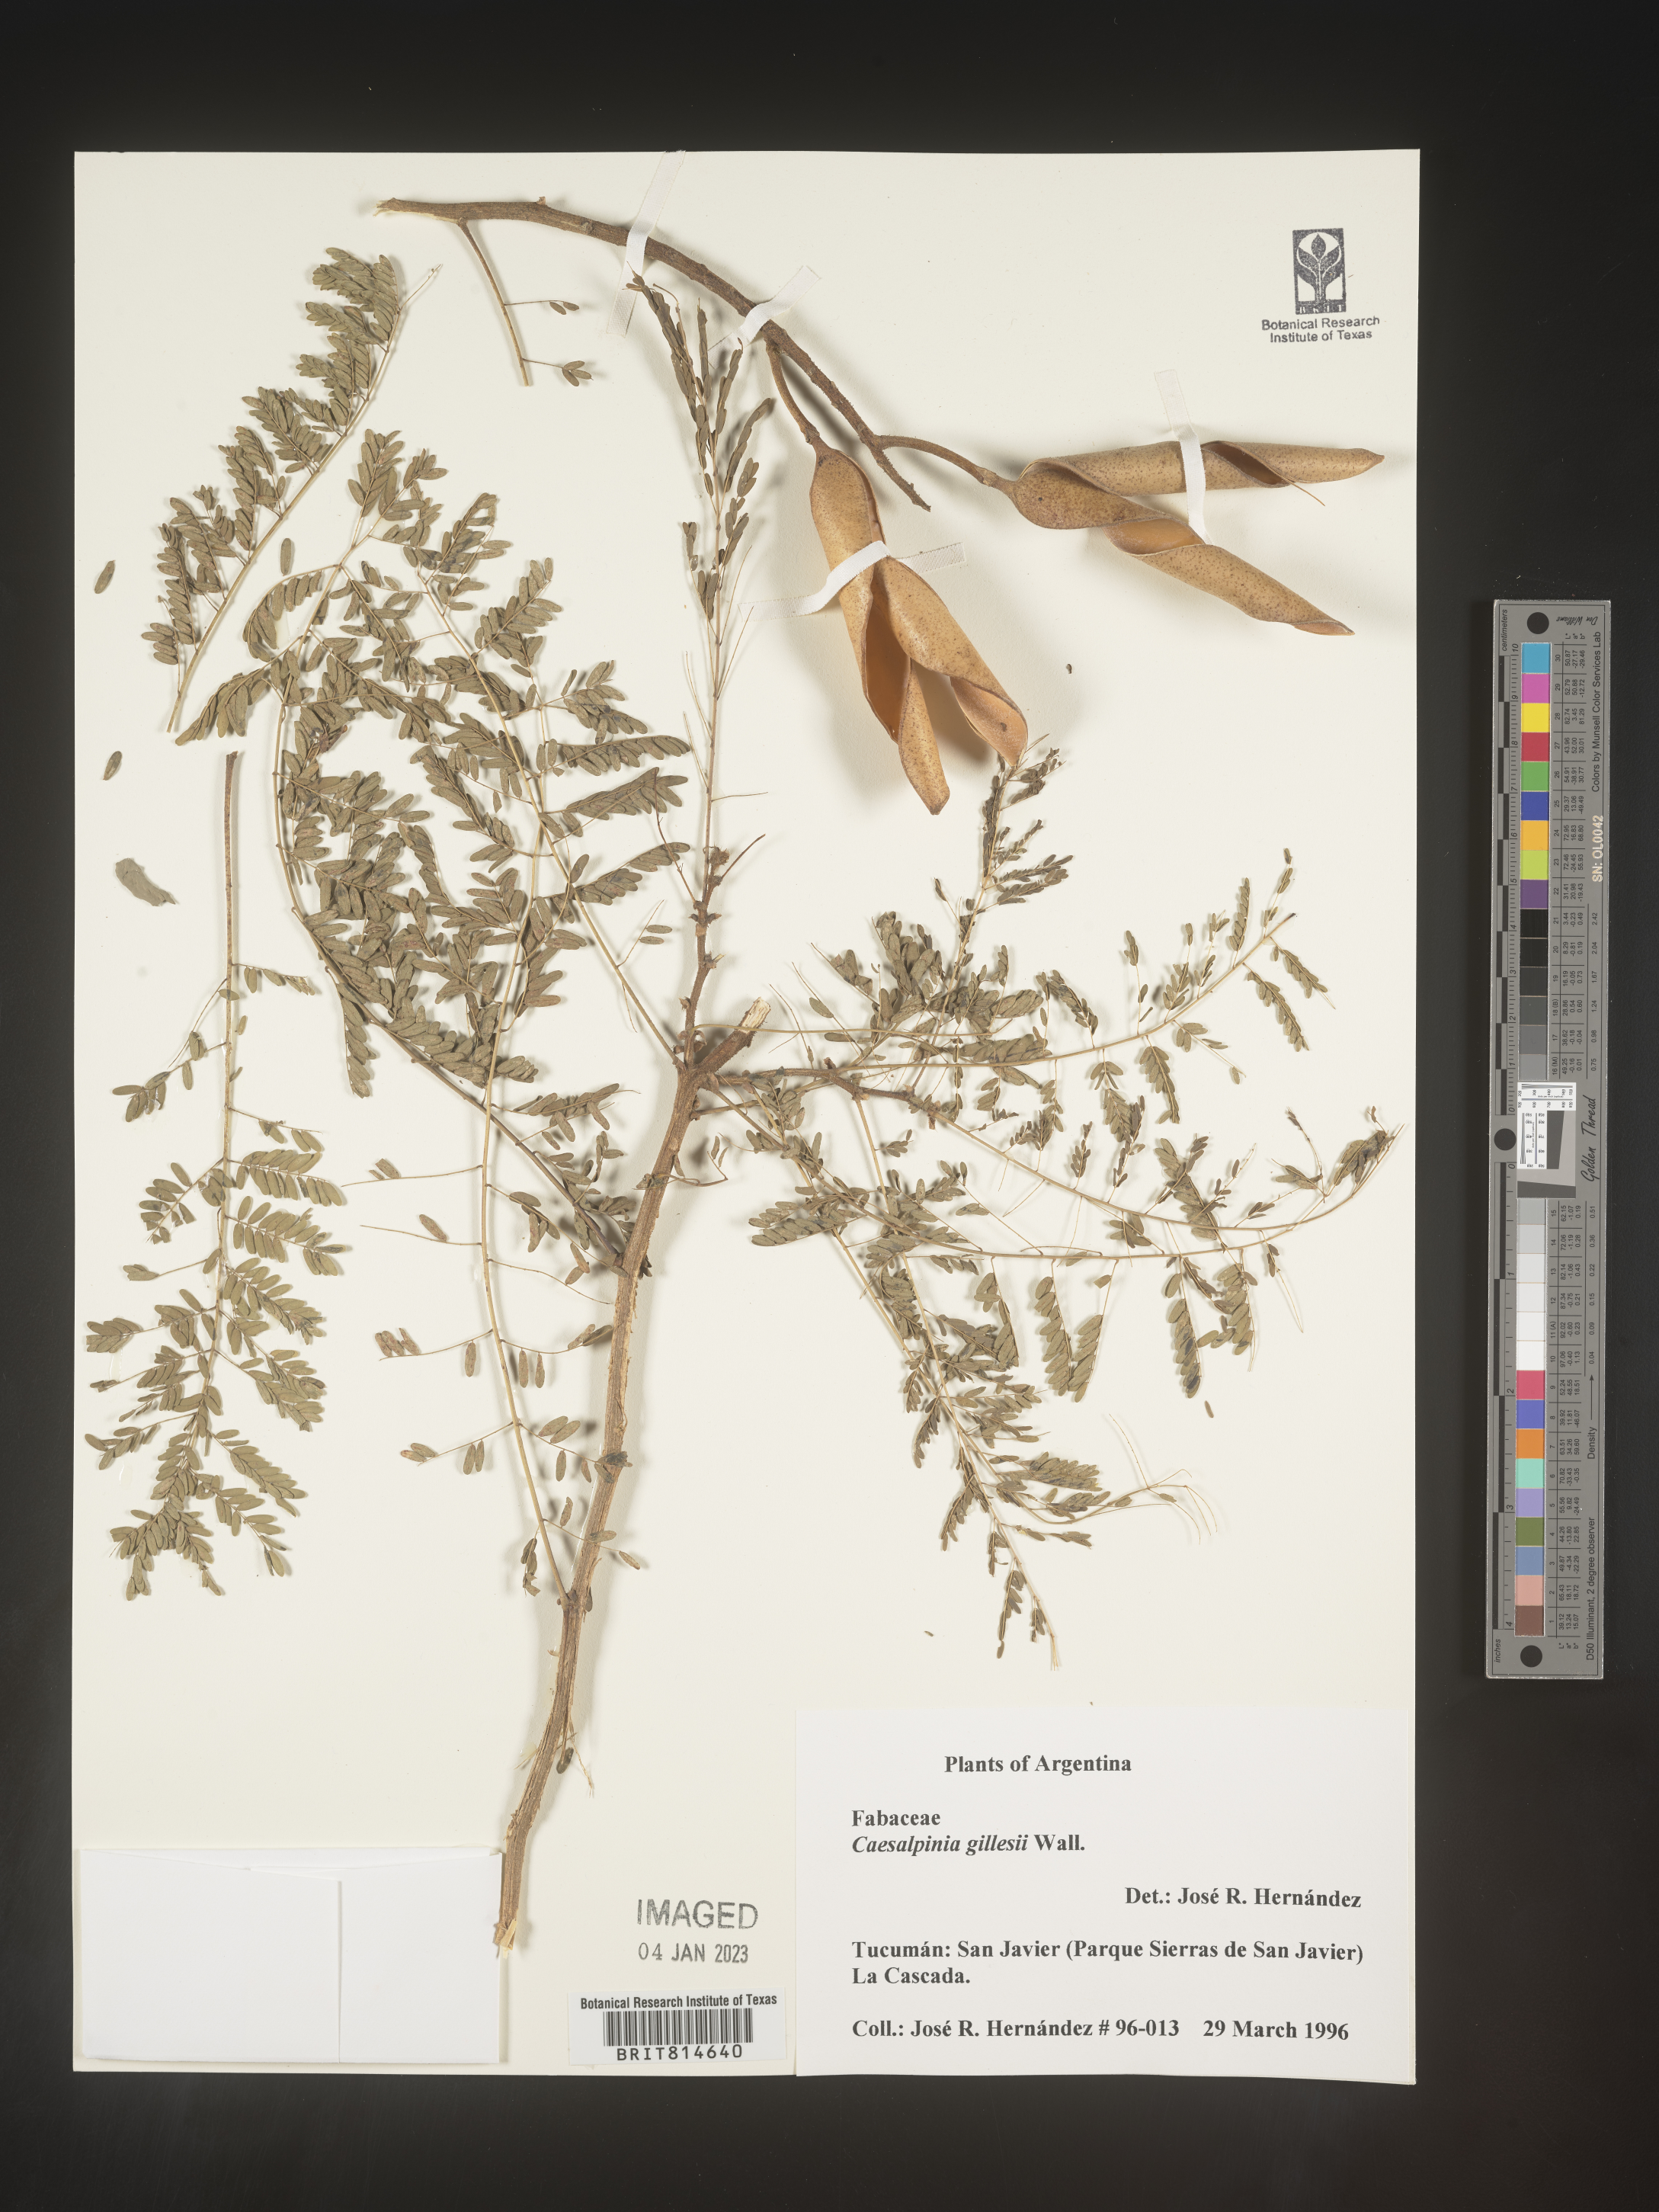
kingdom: Plantae
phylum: Tracheophyta
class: Magnoliopsida
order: Fabales
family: Fabaceae
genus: Caesalpinia
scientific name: Caesalpinia
